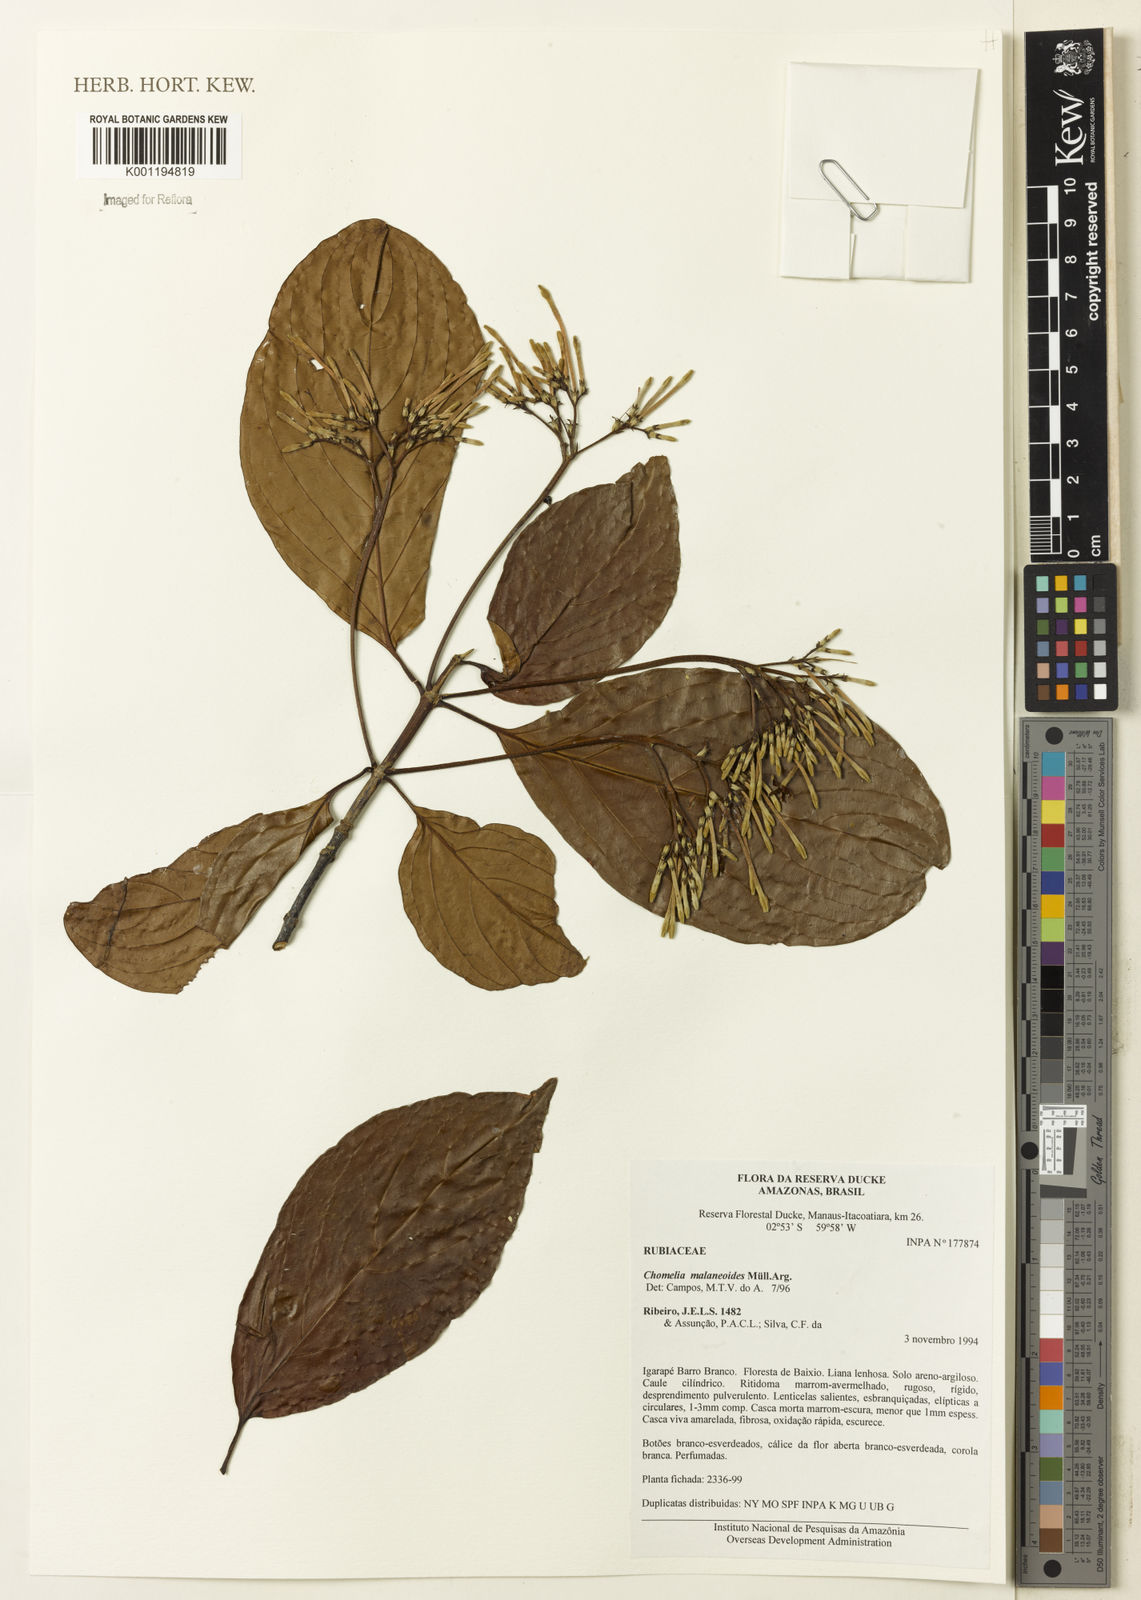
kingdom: Plantae
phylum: Tracheophyta
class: Magnoliopsida
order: Gentianales
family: Rubiaceae
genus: Chomelia
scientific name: Chomelia
